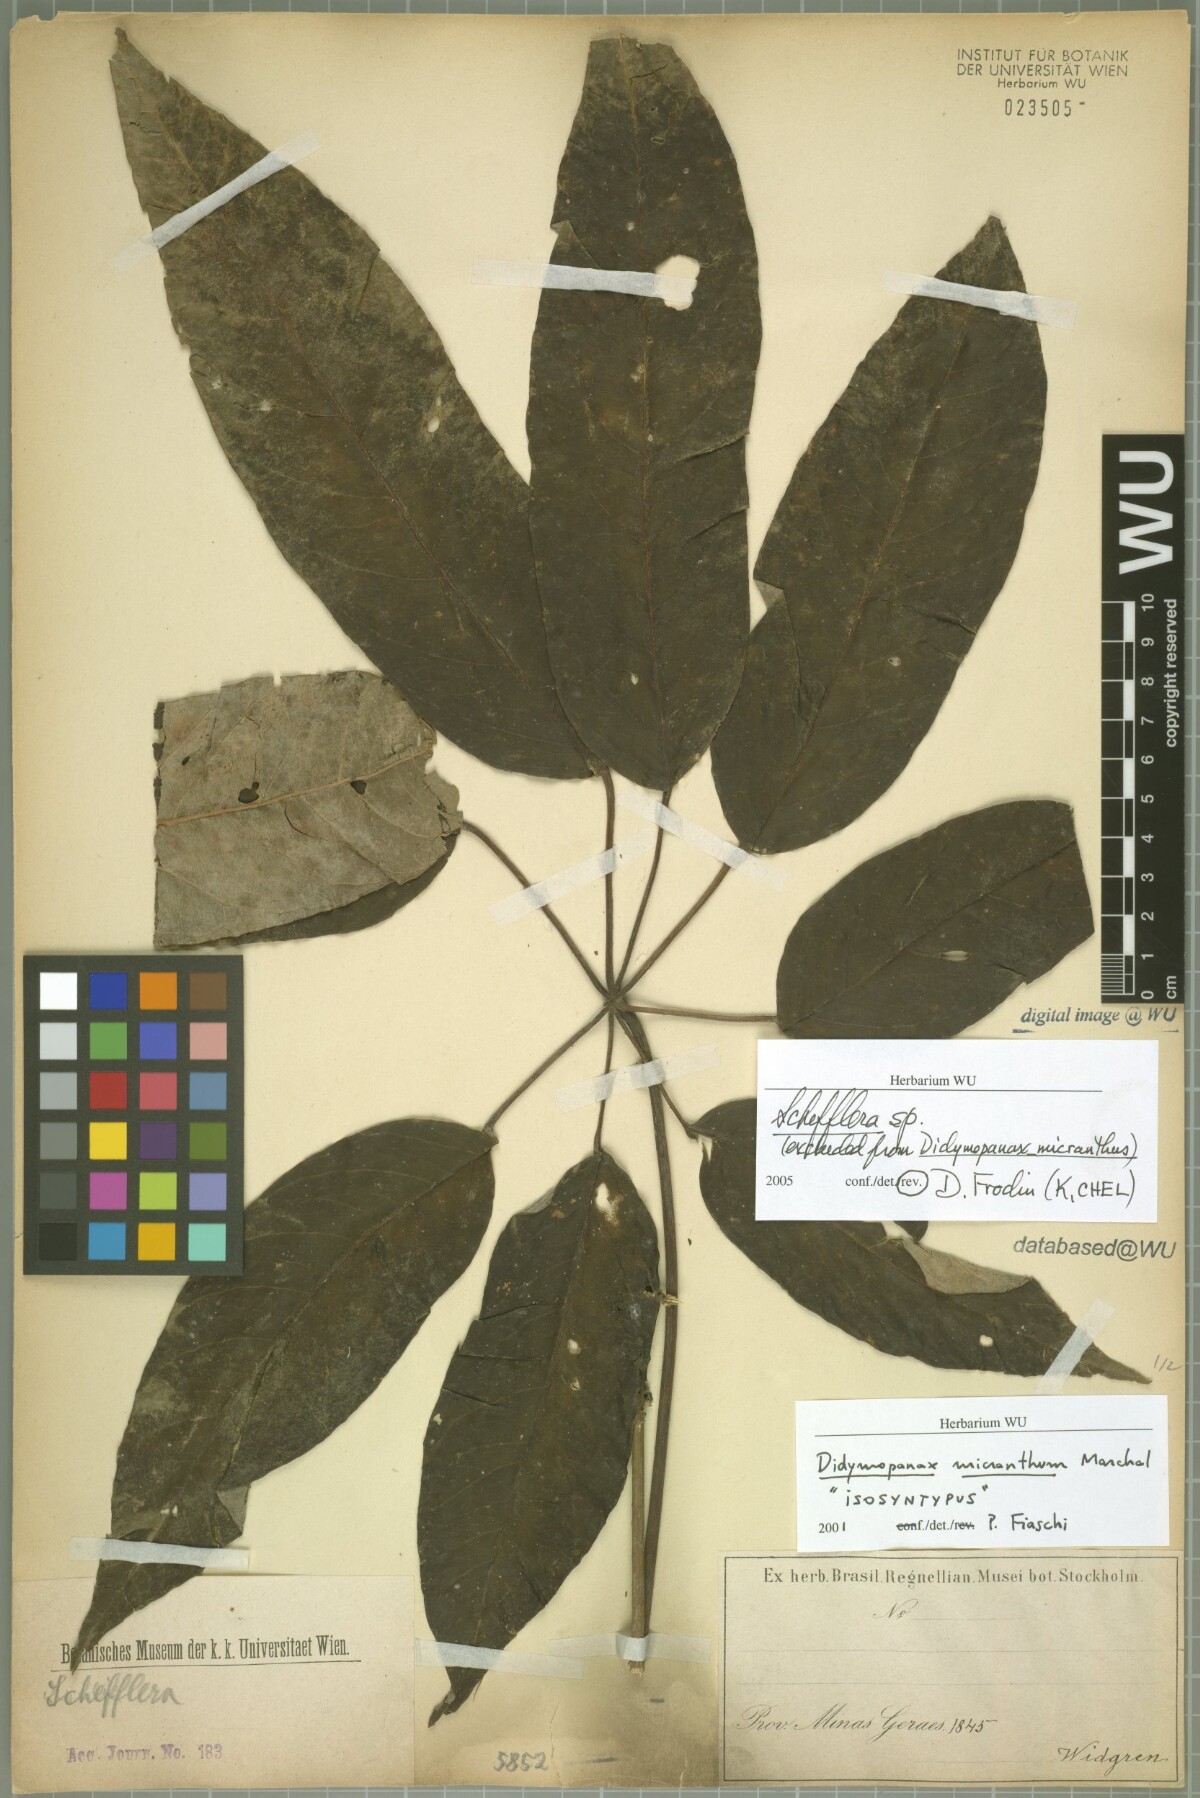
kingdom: Plantae
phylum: Tracheophyta
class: Magnoliopsida
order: Apiales
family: Araliaceae
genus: Didymopanax
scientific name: Didymopanax calvus
